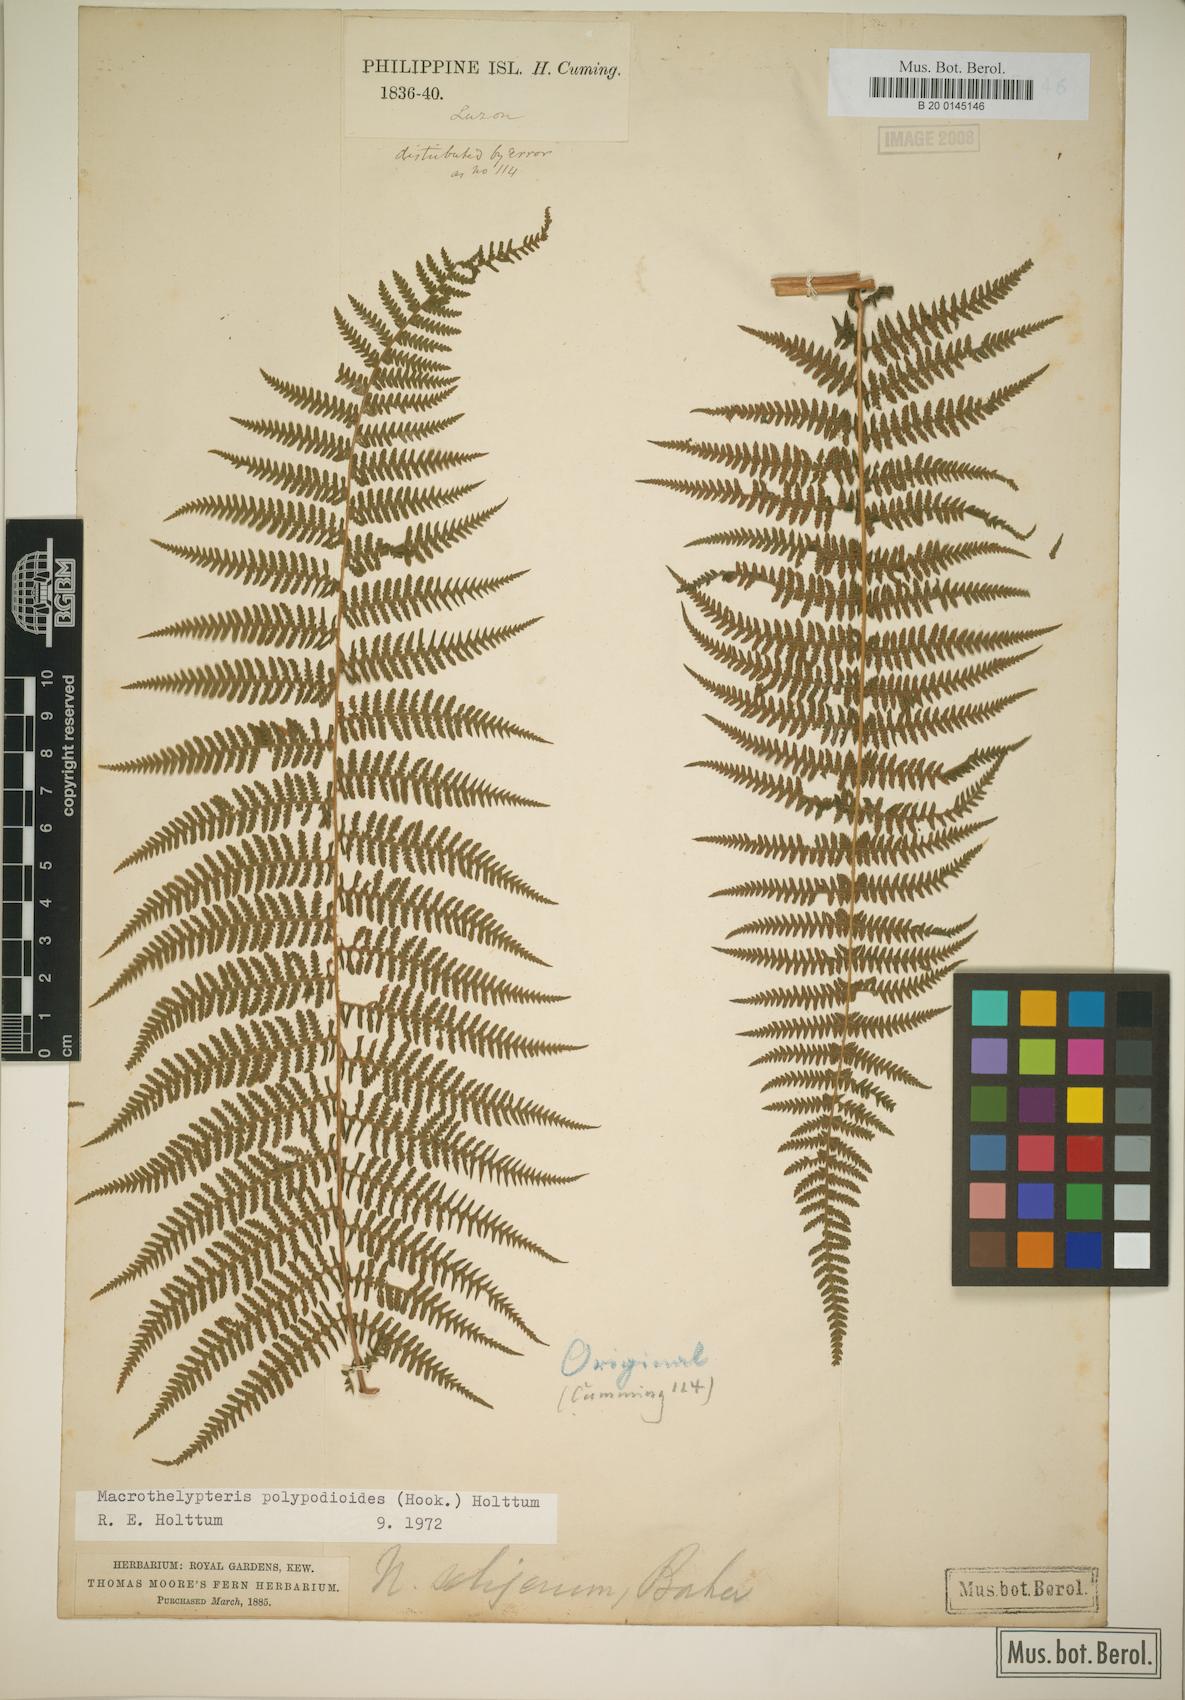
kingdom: Plantae
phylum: Tracheophyta
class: Polypodiopsida
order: Polypodiales
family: Thelypteridaceae
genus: Macrothelypteris
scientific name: Macrothelypteris polypodioides
